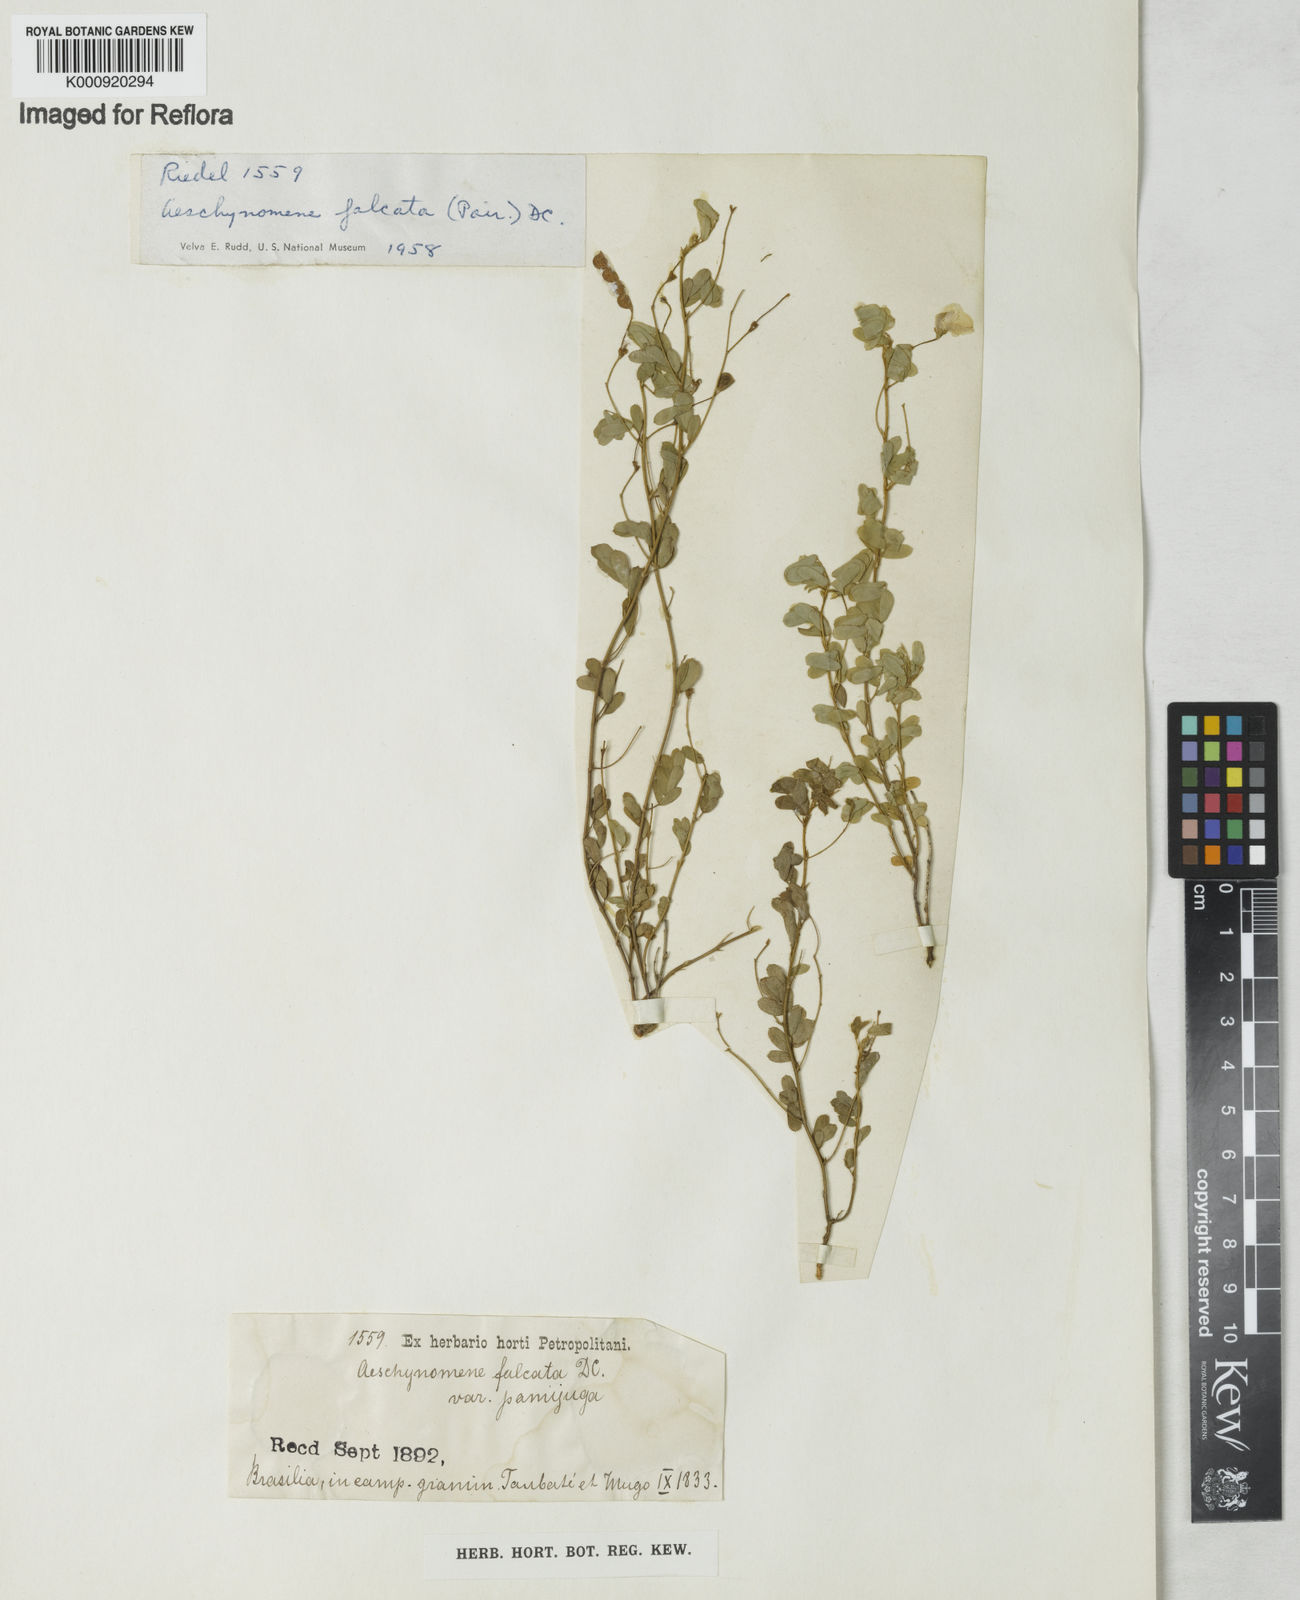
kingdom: Plantae
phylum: Tracheophyta
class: Magnoliopsida
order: Fabales
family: Fabaceae
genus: Aeschynomene
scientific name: Aeschynomene
